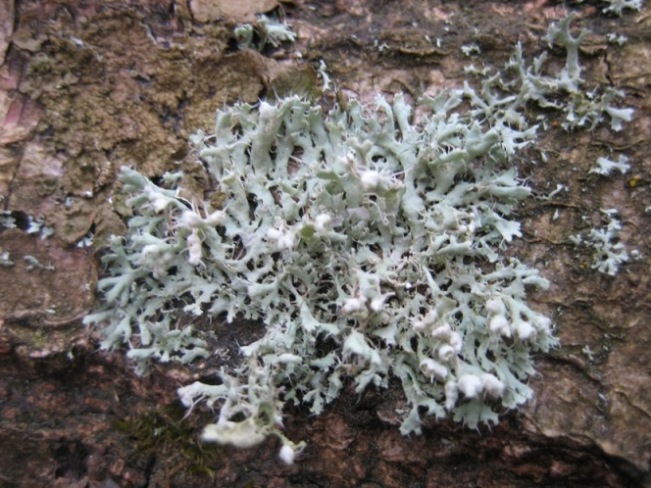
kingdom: Fungi
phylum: Ascomycota
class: Lecanoromycetes
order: Caliciales
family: Physciaceae
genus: Physcia
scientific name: Physcia tenella
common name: spæd rosetlav
